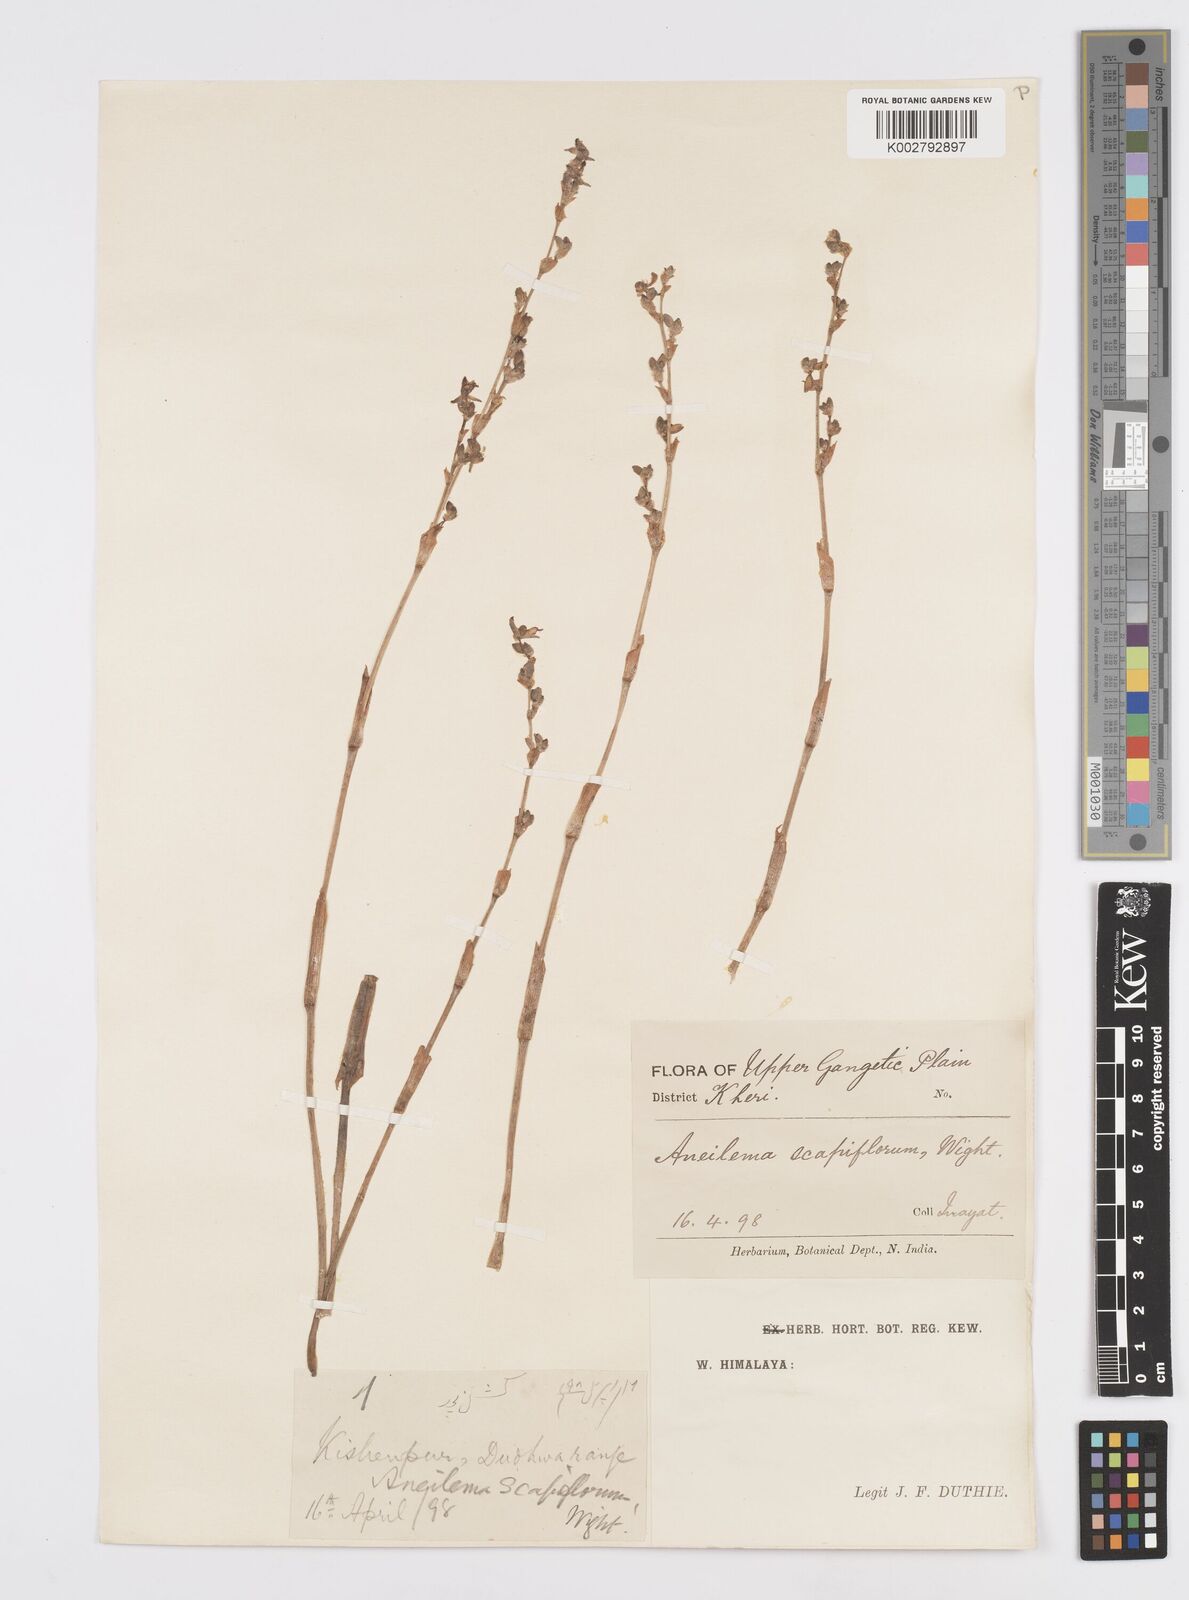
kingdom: Plantae
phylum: Tracheophyta
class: Liliopsida
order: Commelinales
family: Commelinaceae
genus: Murdannia
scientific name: Murdannia edulis
